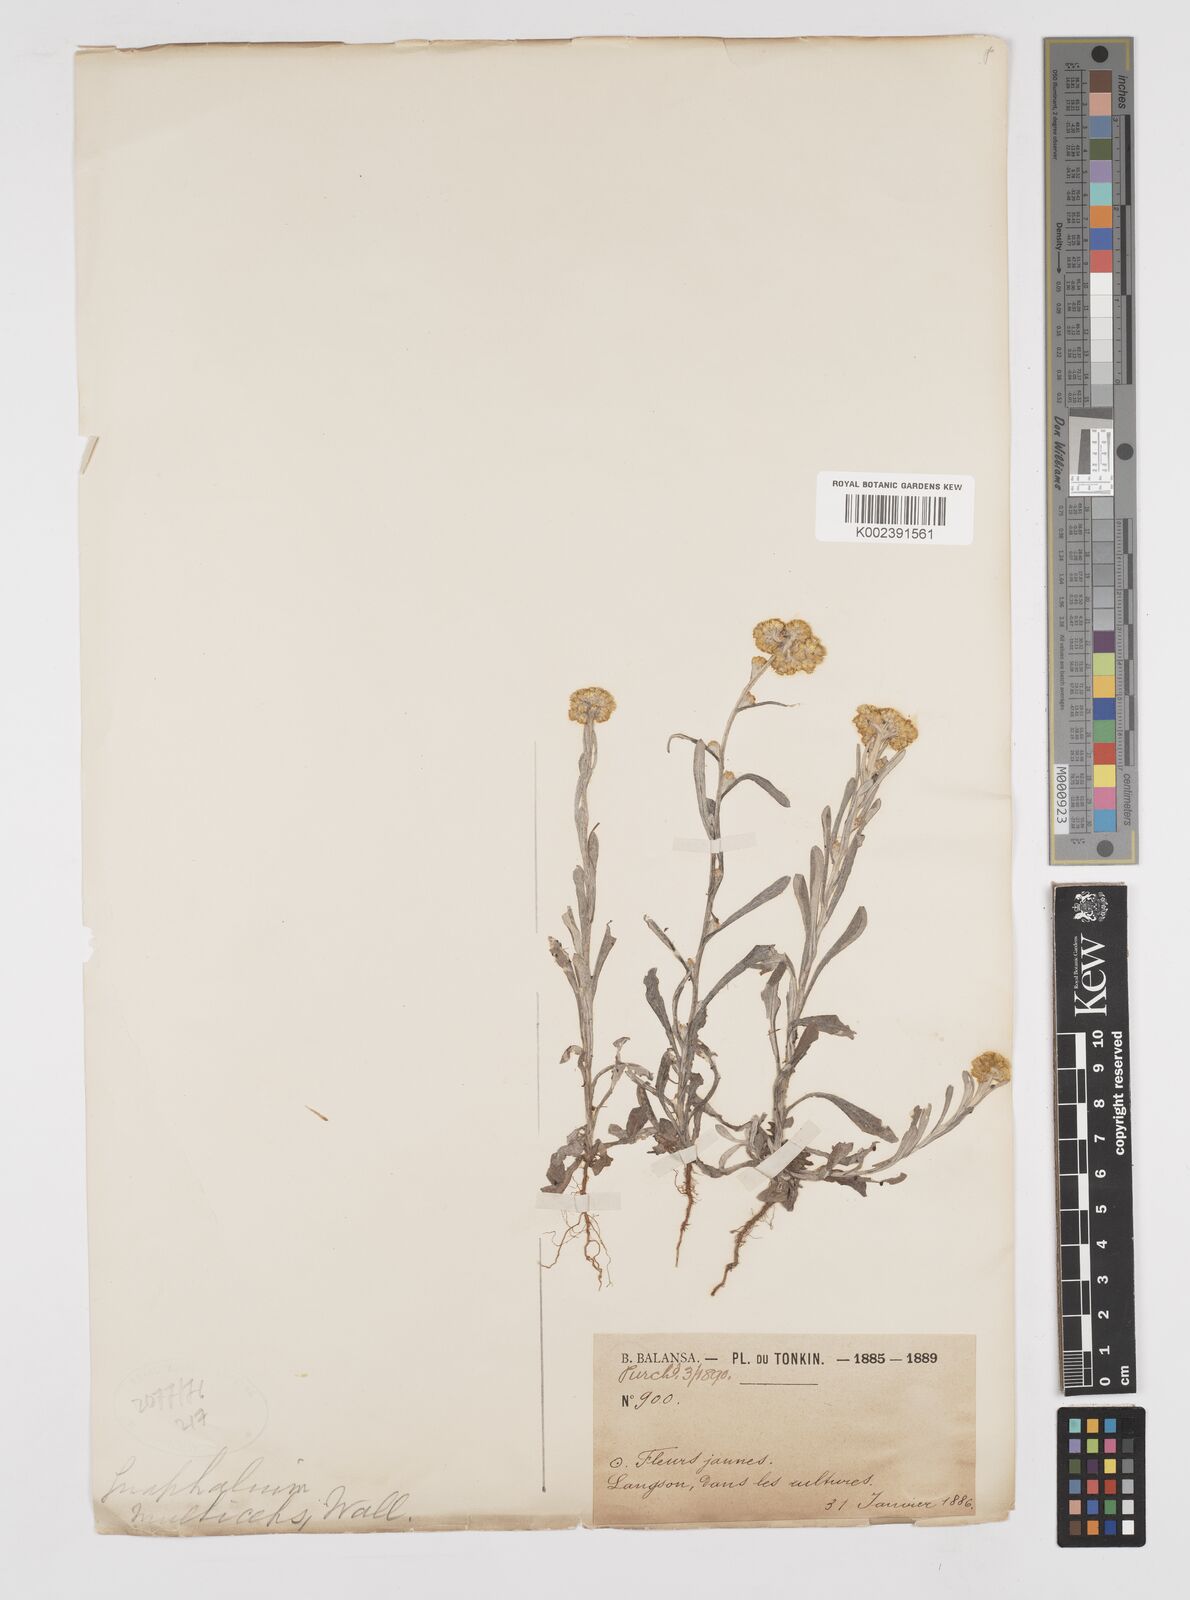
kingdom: Plantae
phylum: Tracheophyta
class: Magnoliopsida
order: Asterales
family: Asteraceae
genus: Pseudognaphalium
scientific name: Pseudognaphalium affine
